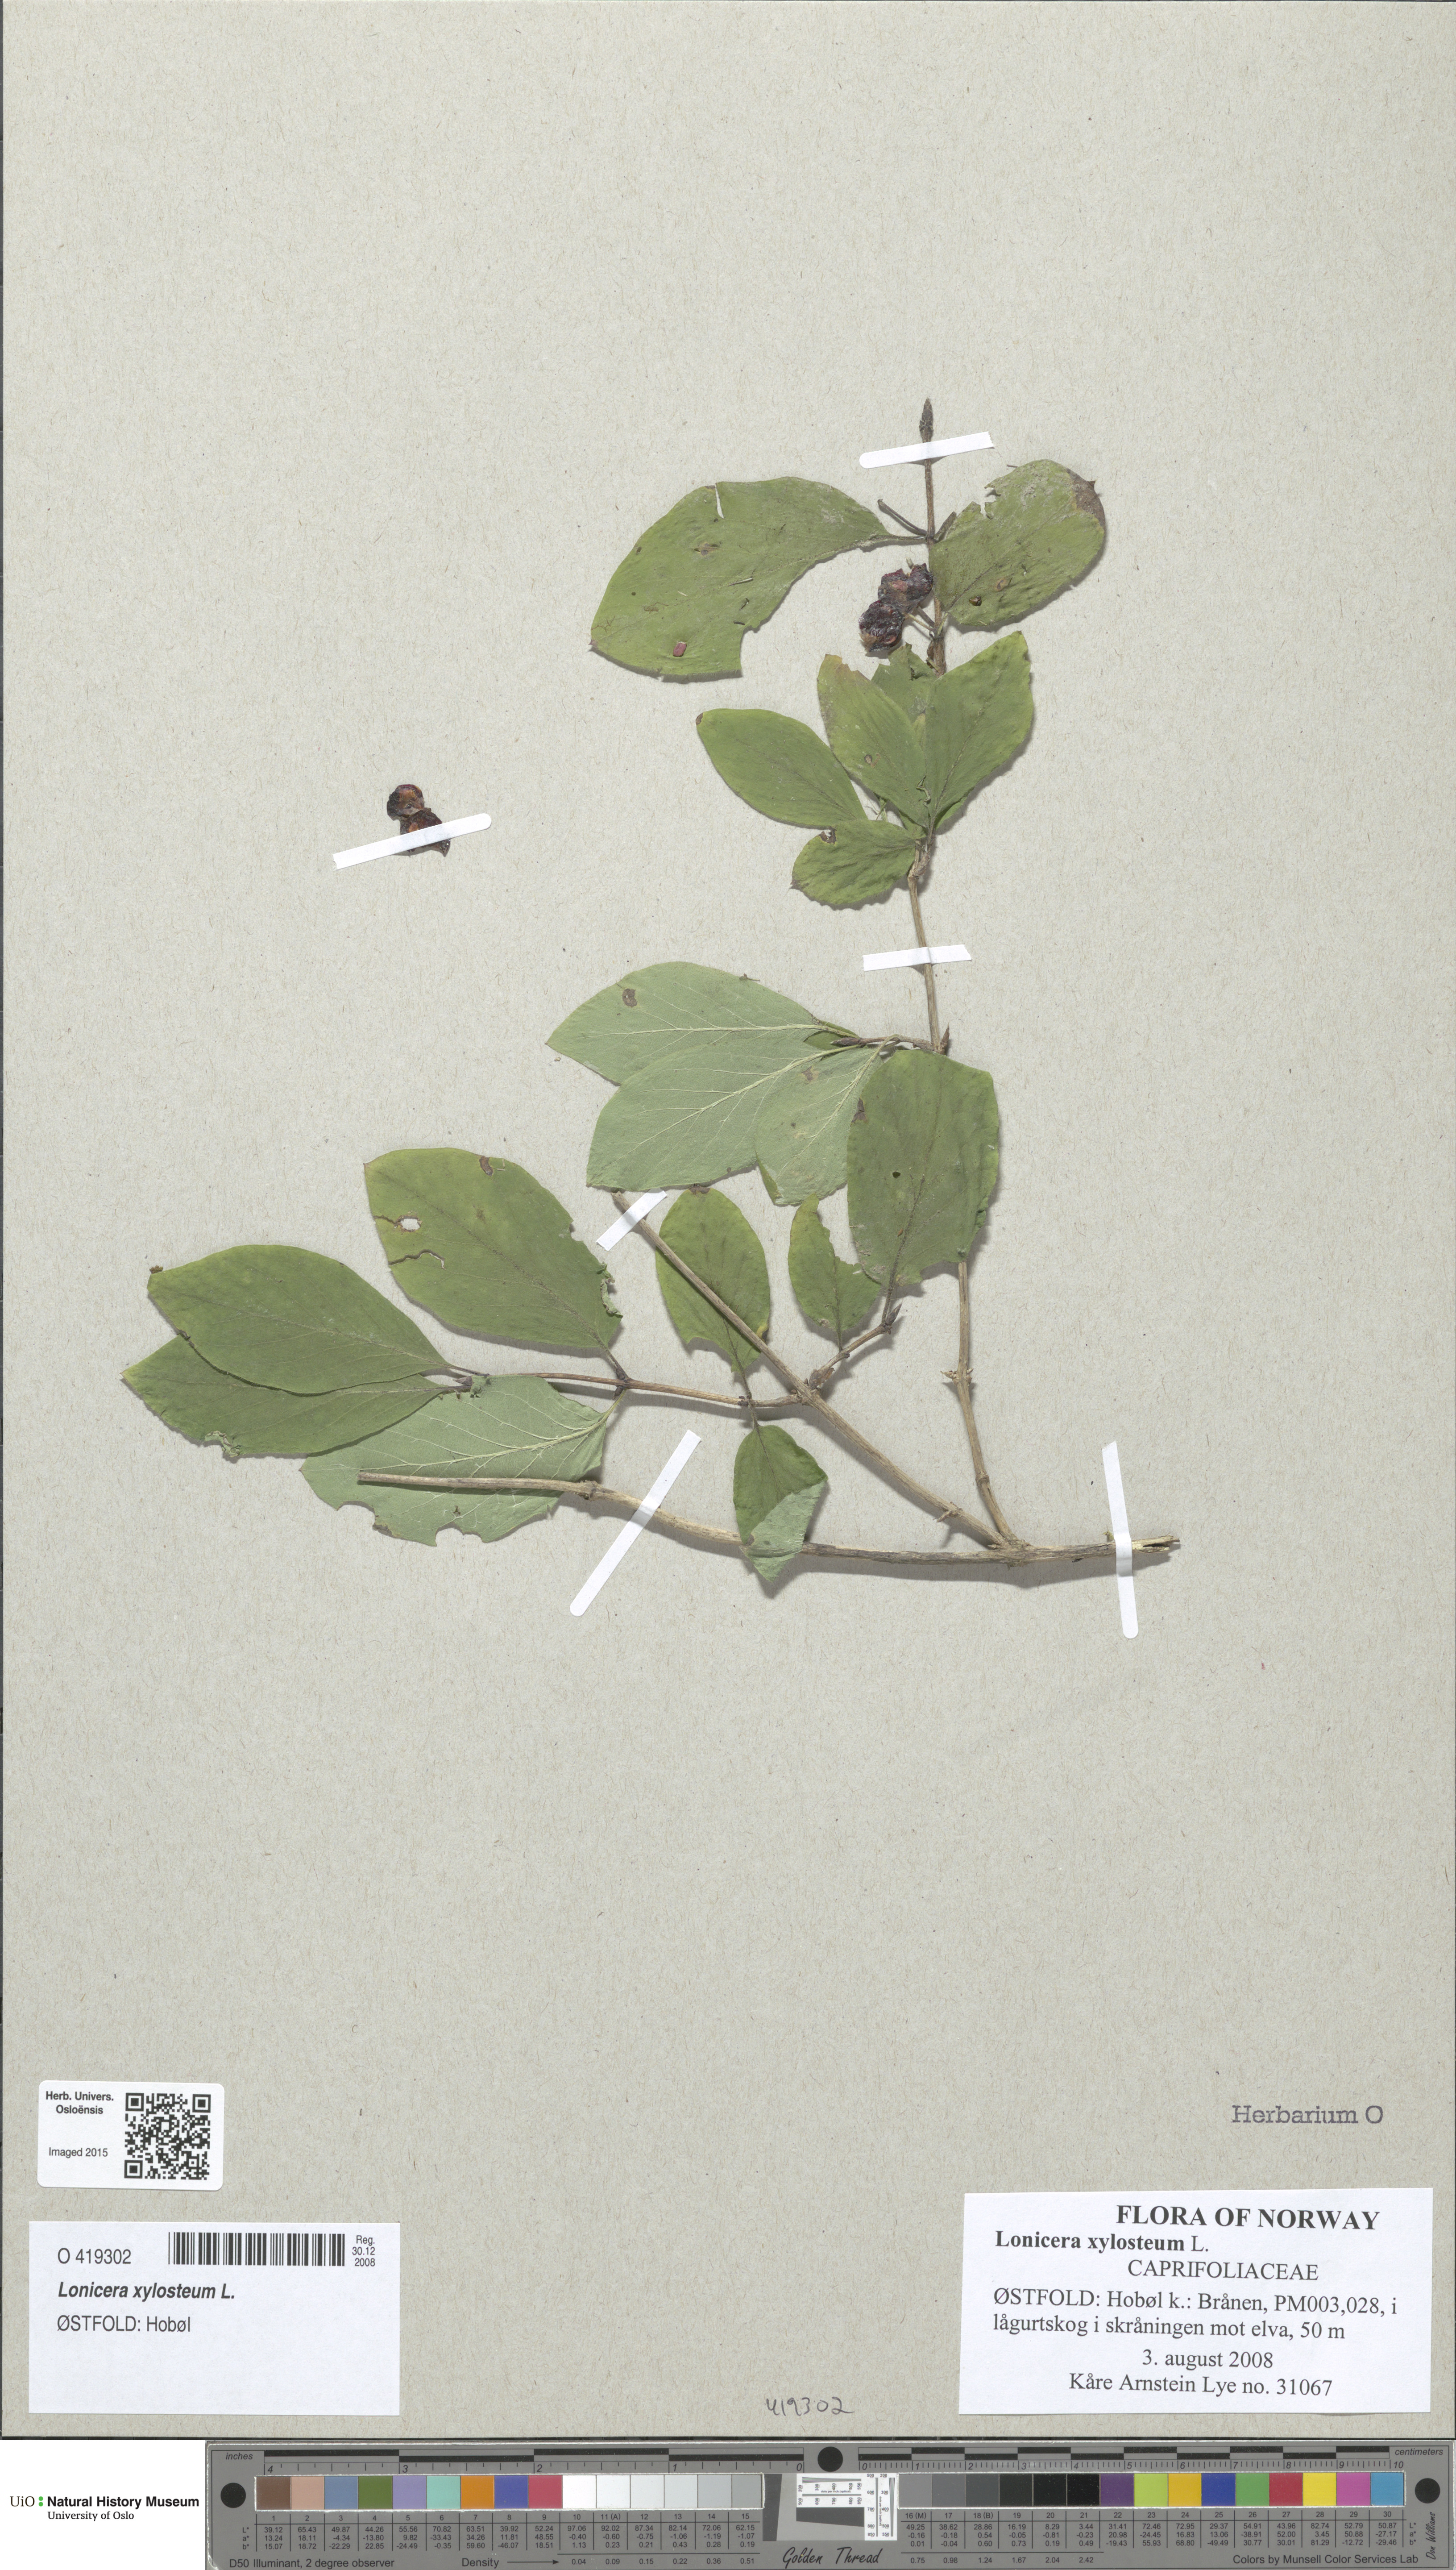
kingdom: Plantae
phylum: Tracheophyta
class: Magnoliopsida
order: Dipsacales
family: Caprifoliaceae
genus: Lonicera
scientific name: Lonicera xylosteum
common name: Fly honeysuckle
